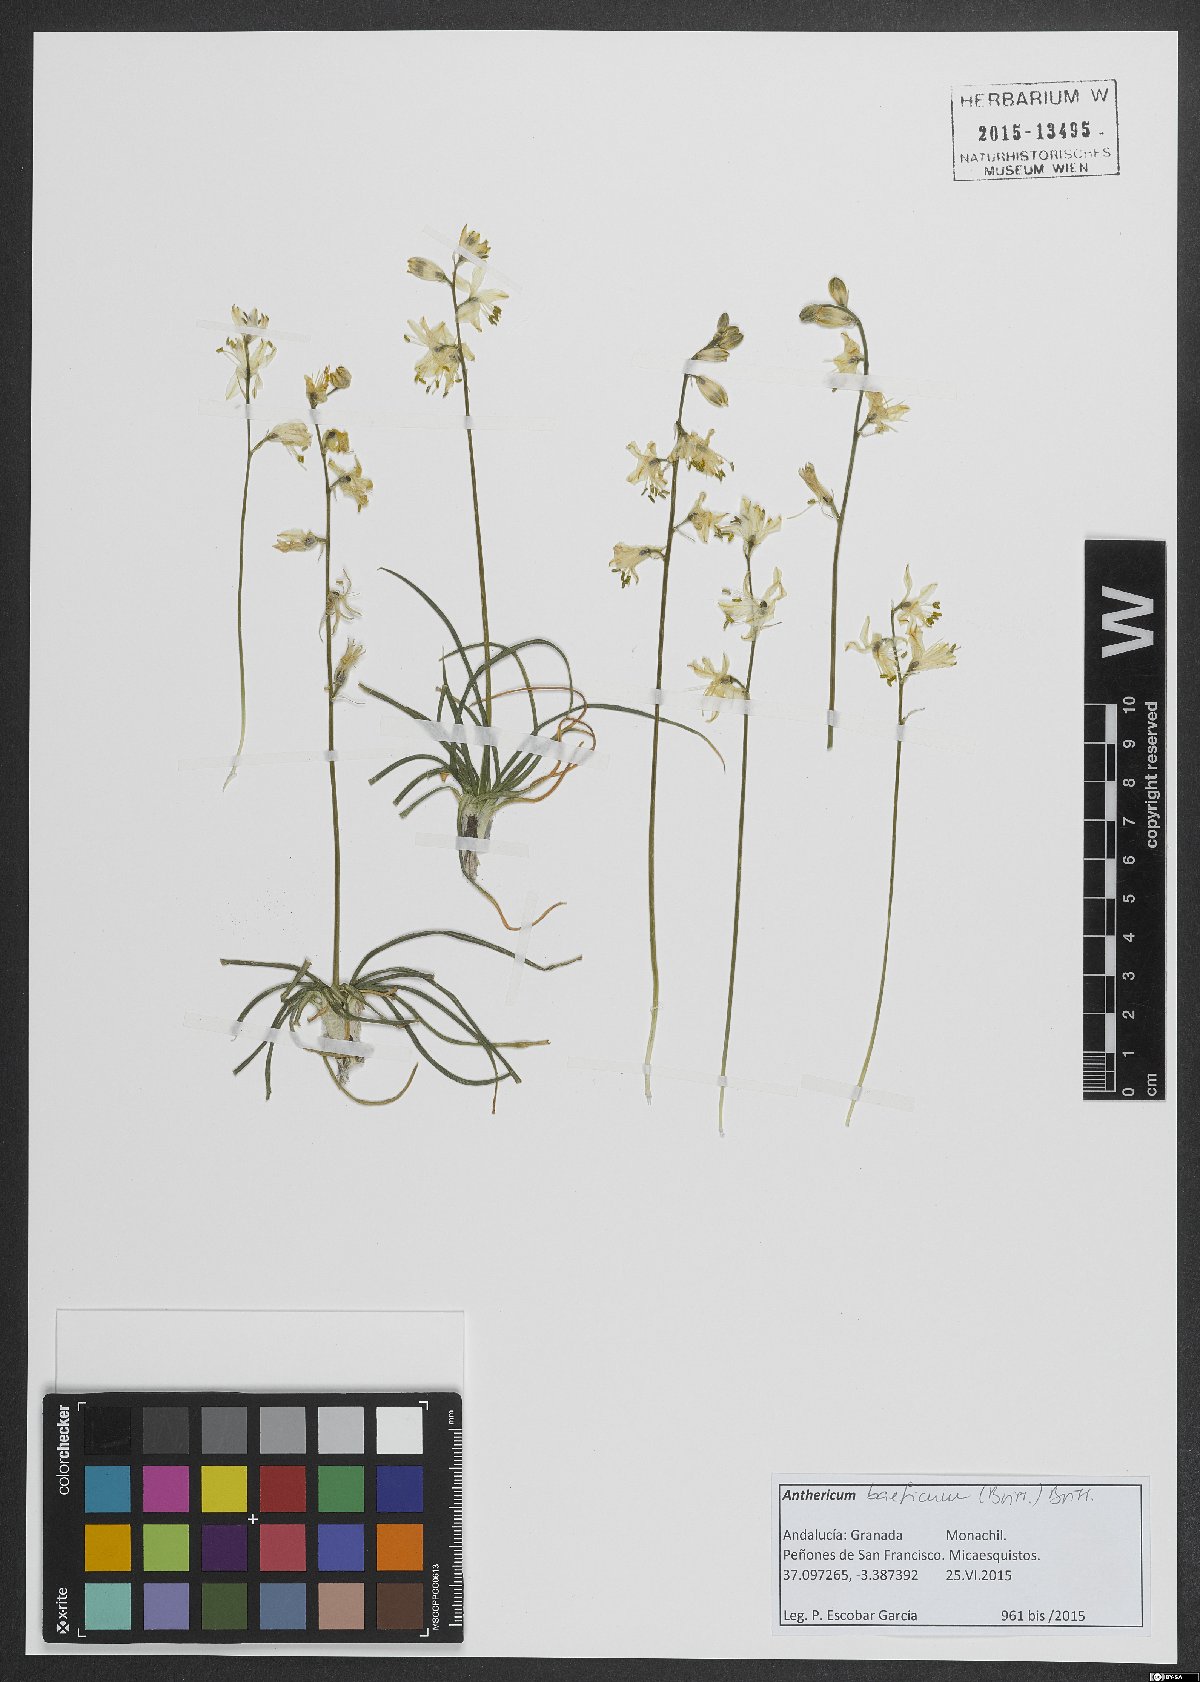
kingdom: Plantae
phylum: Tracheophyta
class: Liliopsida
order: Asparagales
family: Asparagaceae
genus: Anthericum
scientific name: Anthericum baeticum
